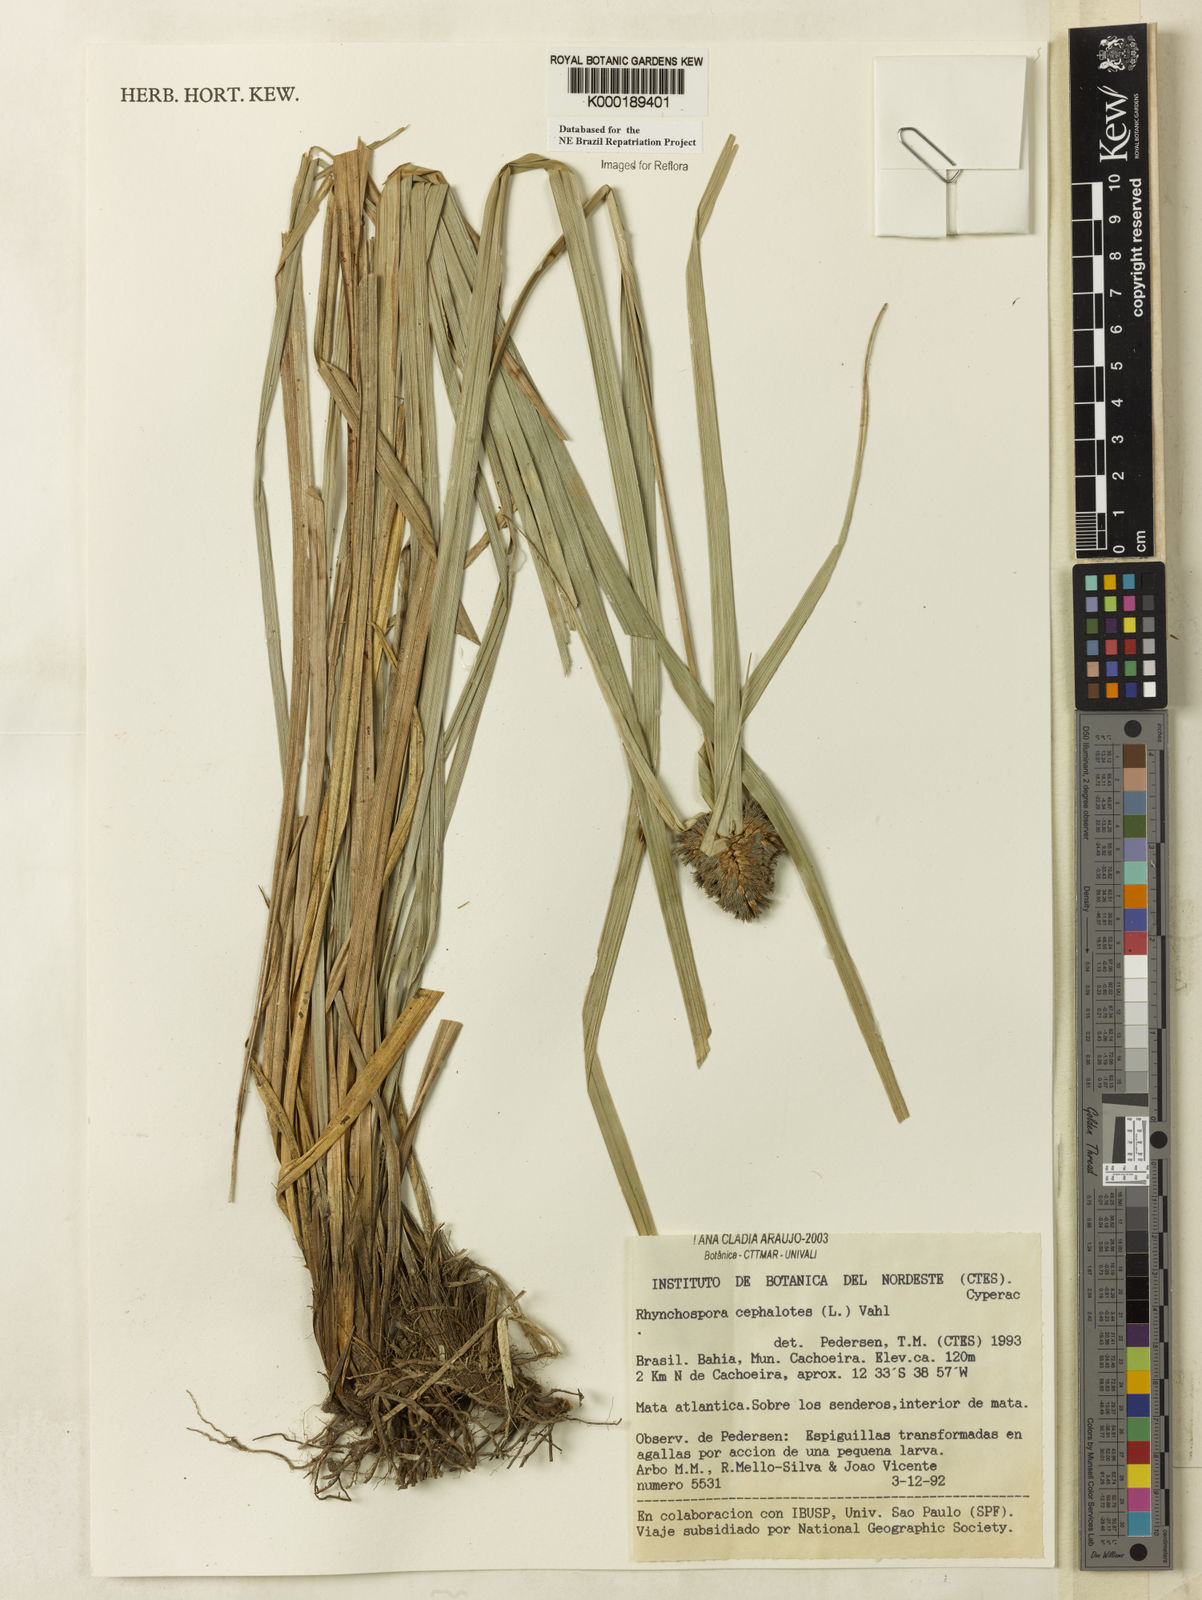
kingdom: Plantae
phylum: Tracheophyta
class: Liliopsida
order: Poales
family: Cyperaceae
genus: Rhynchospora
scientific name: Rhynchospora cephalotes
